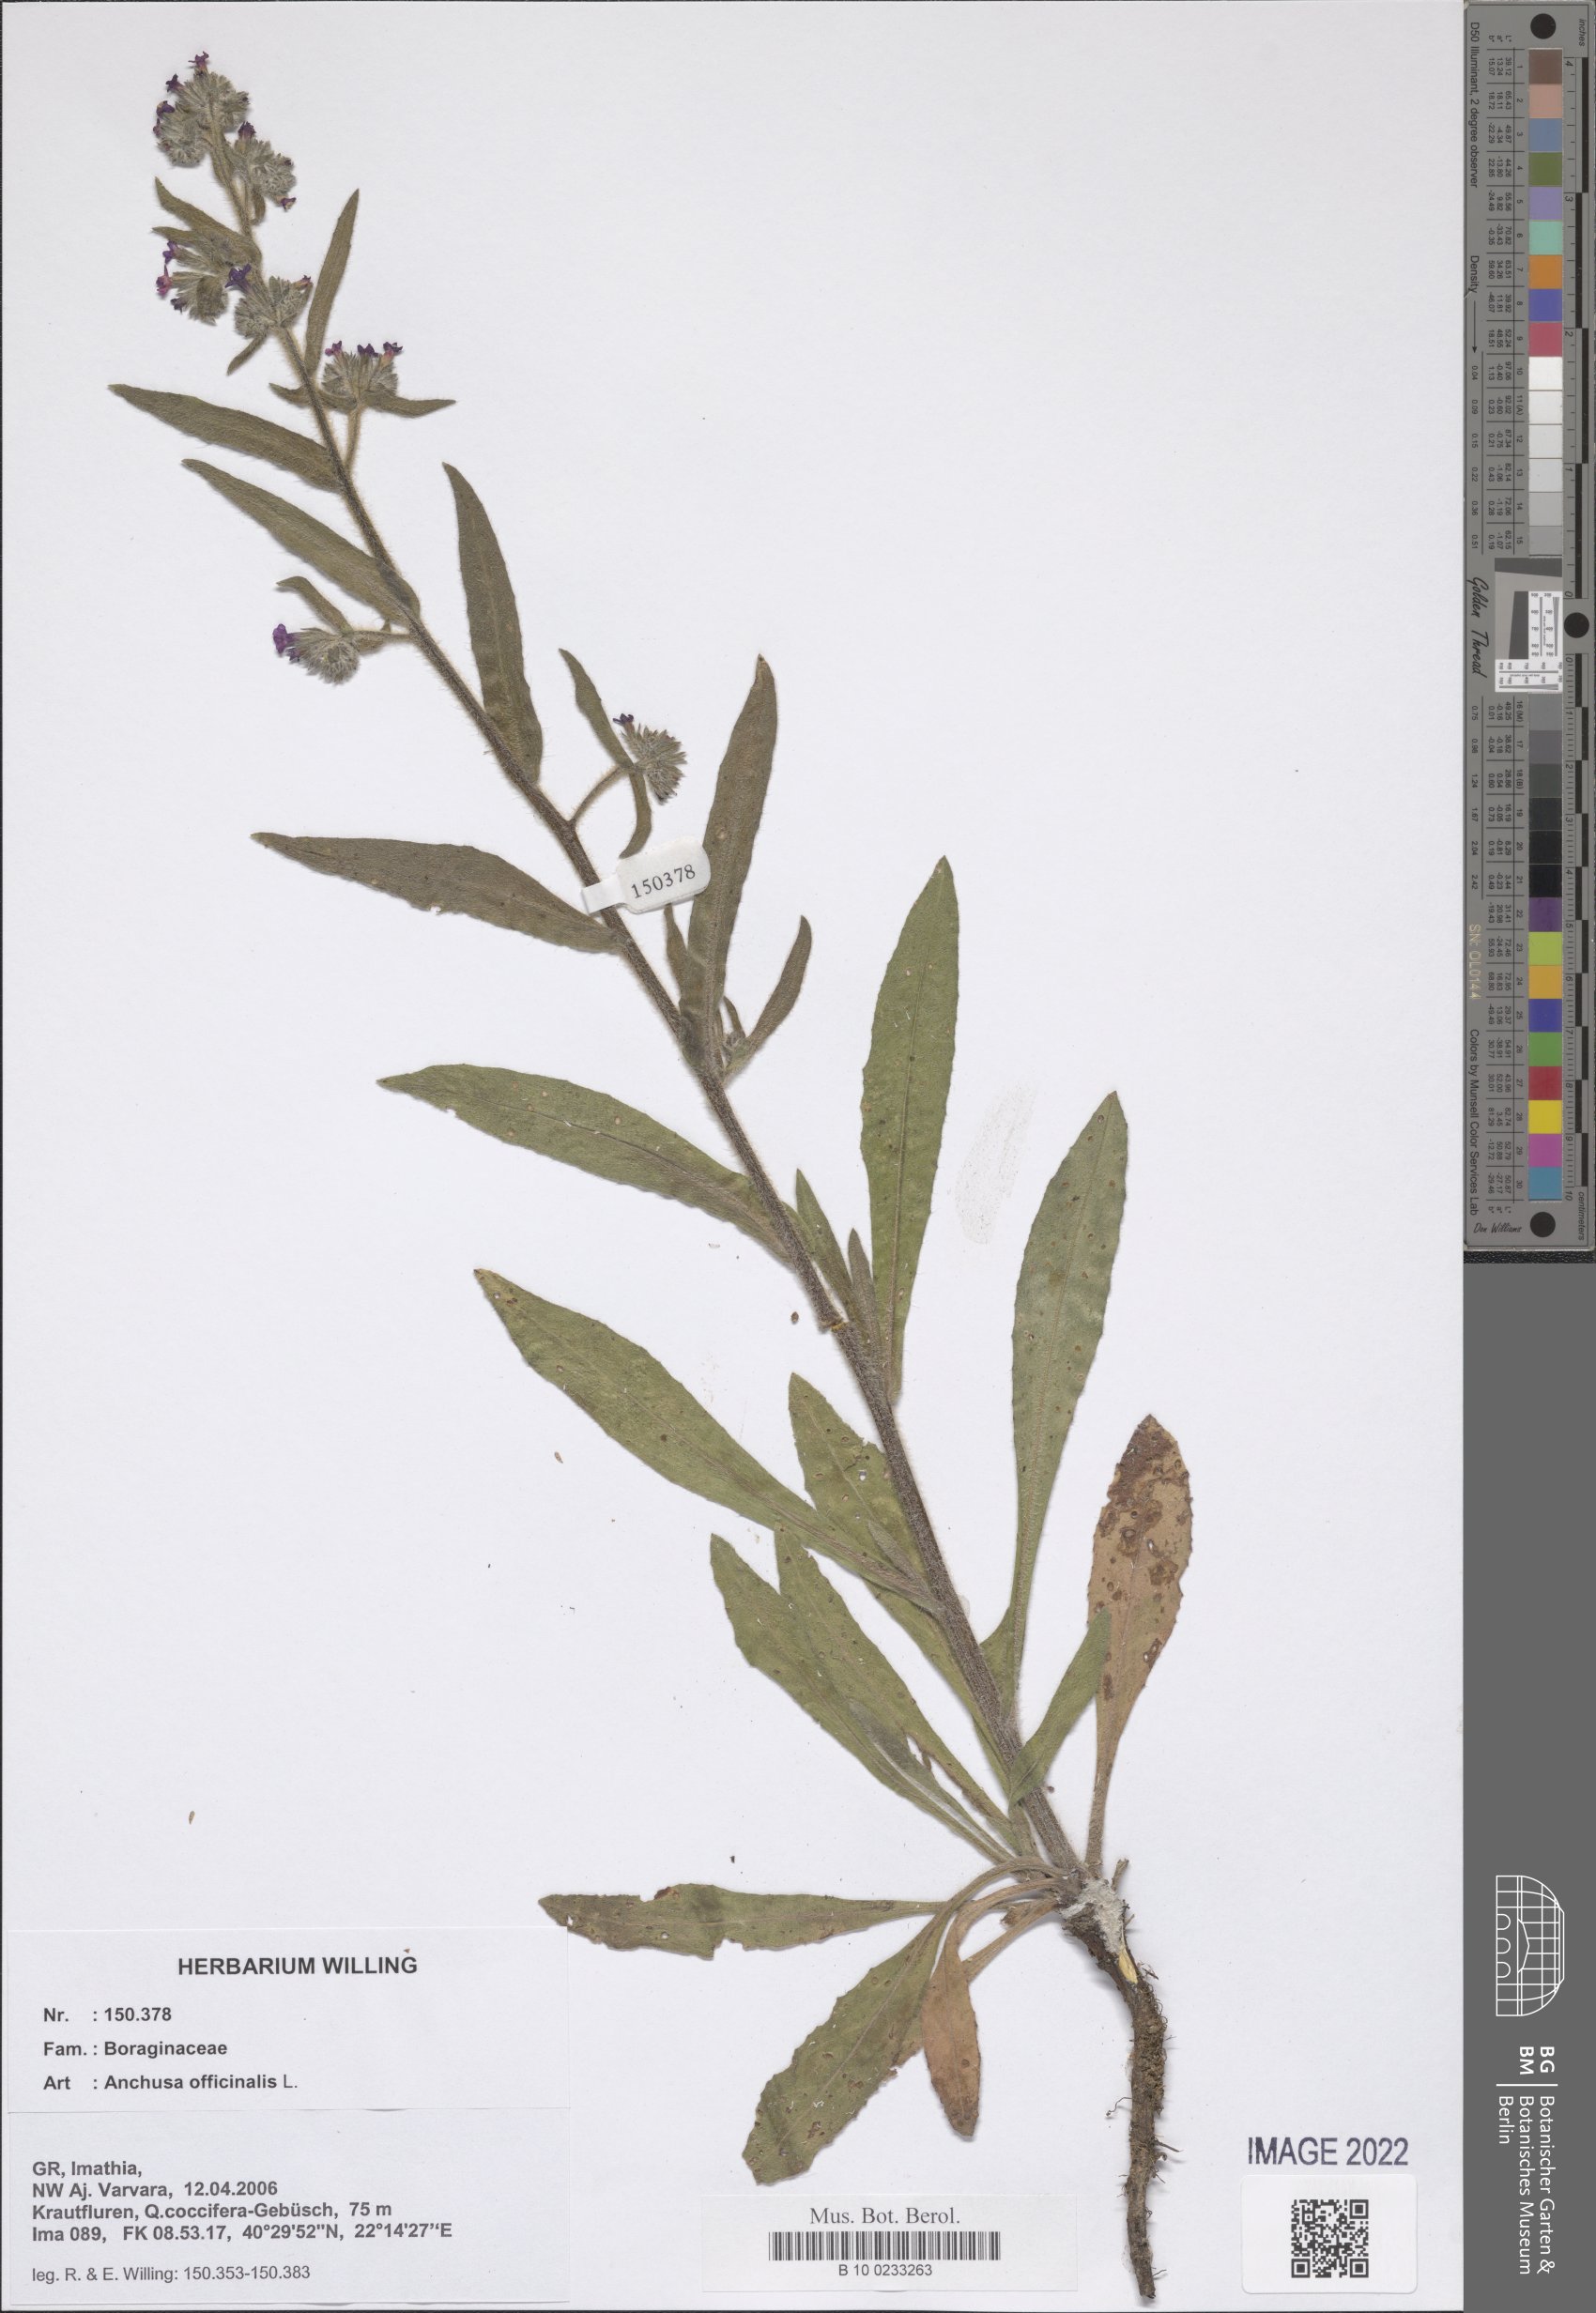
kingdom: Plantae
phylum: Tracheophyta
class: Magnoliopsida
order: Boraginales
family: Boraginaceae
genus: Anchusa
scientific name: Anchusa officinalis
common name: Alkanet
